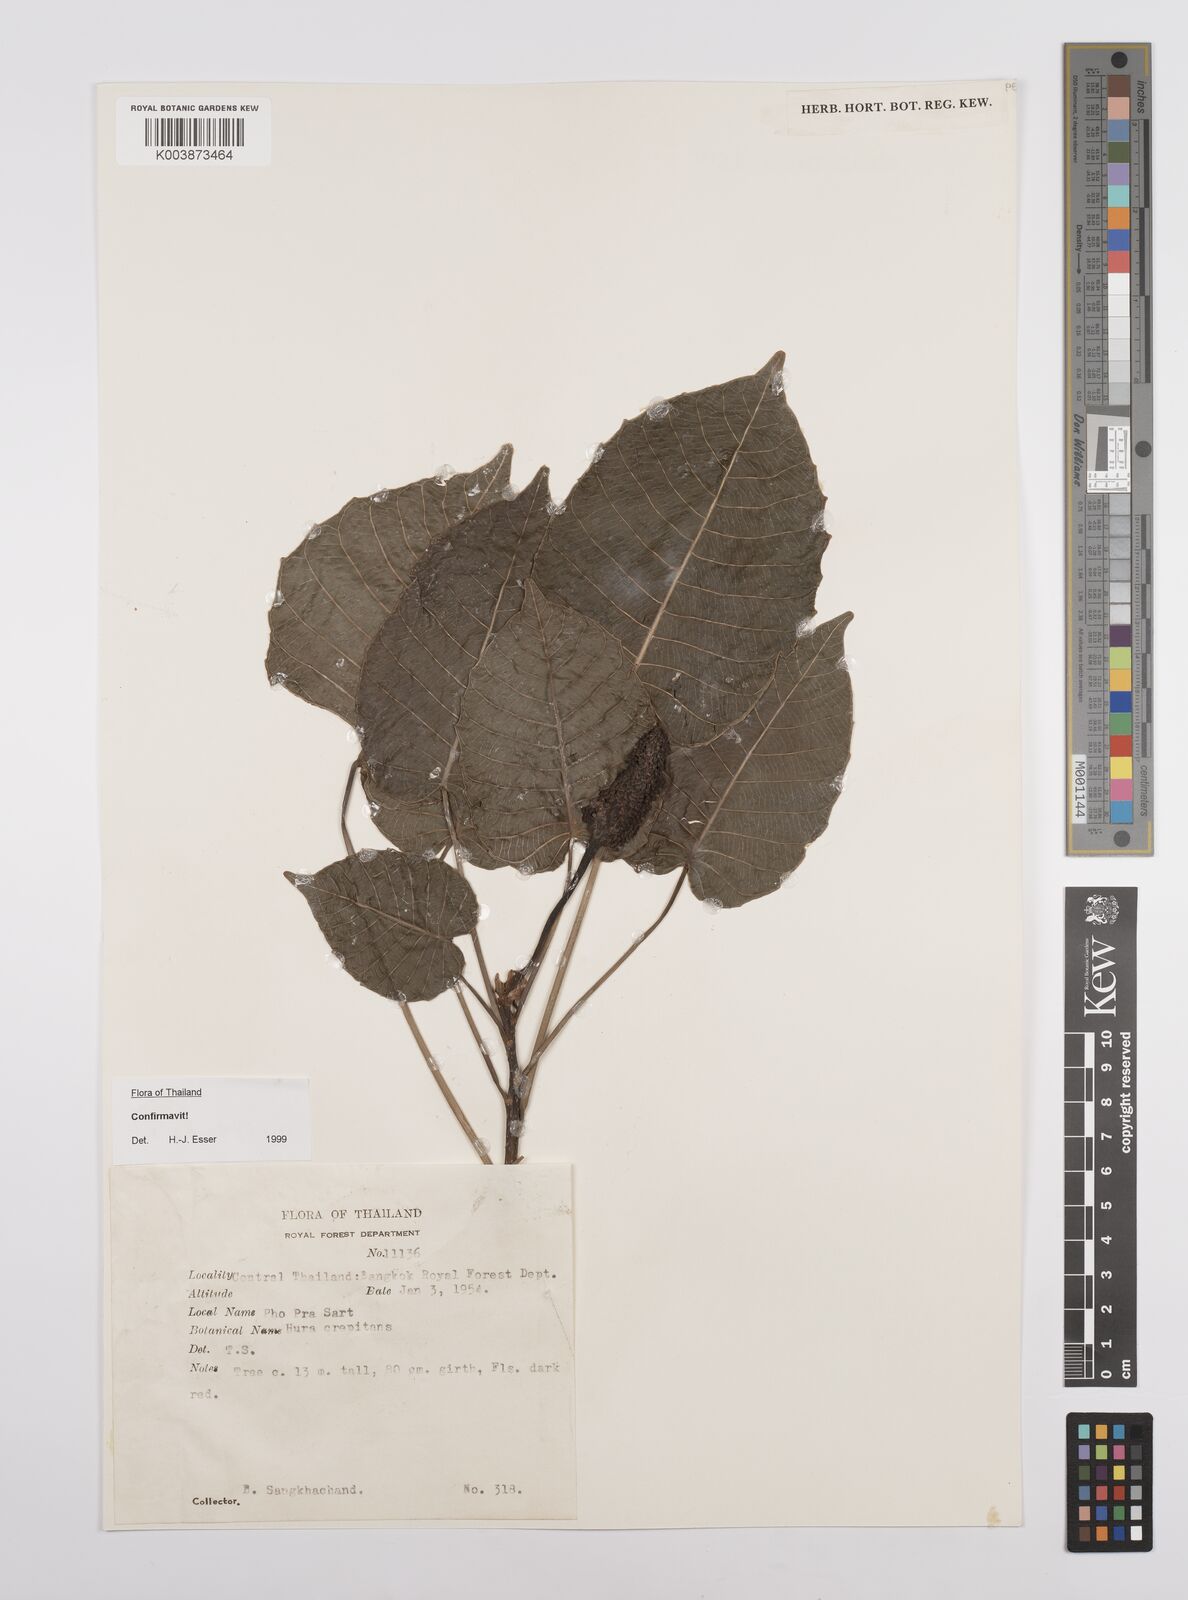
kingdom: Plantae
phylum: Tracheophyta
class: Magnoliopsida
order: Malpighiales
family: Euphorbiaceae
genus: Hura
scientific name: Hura crepitans
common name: Sandboxtree
